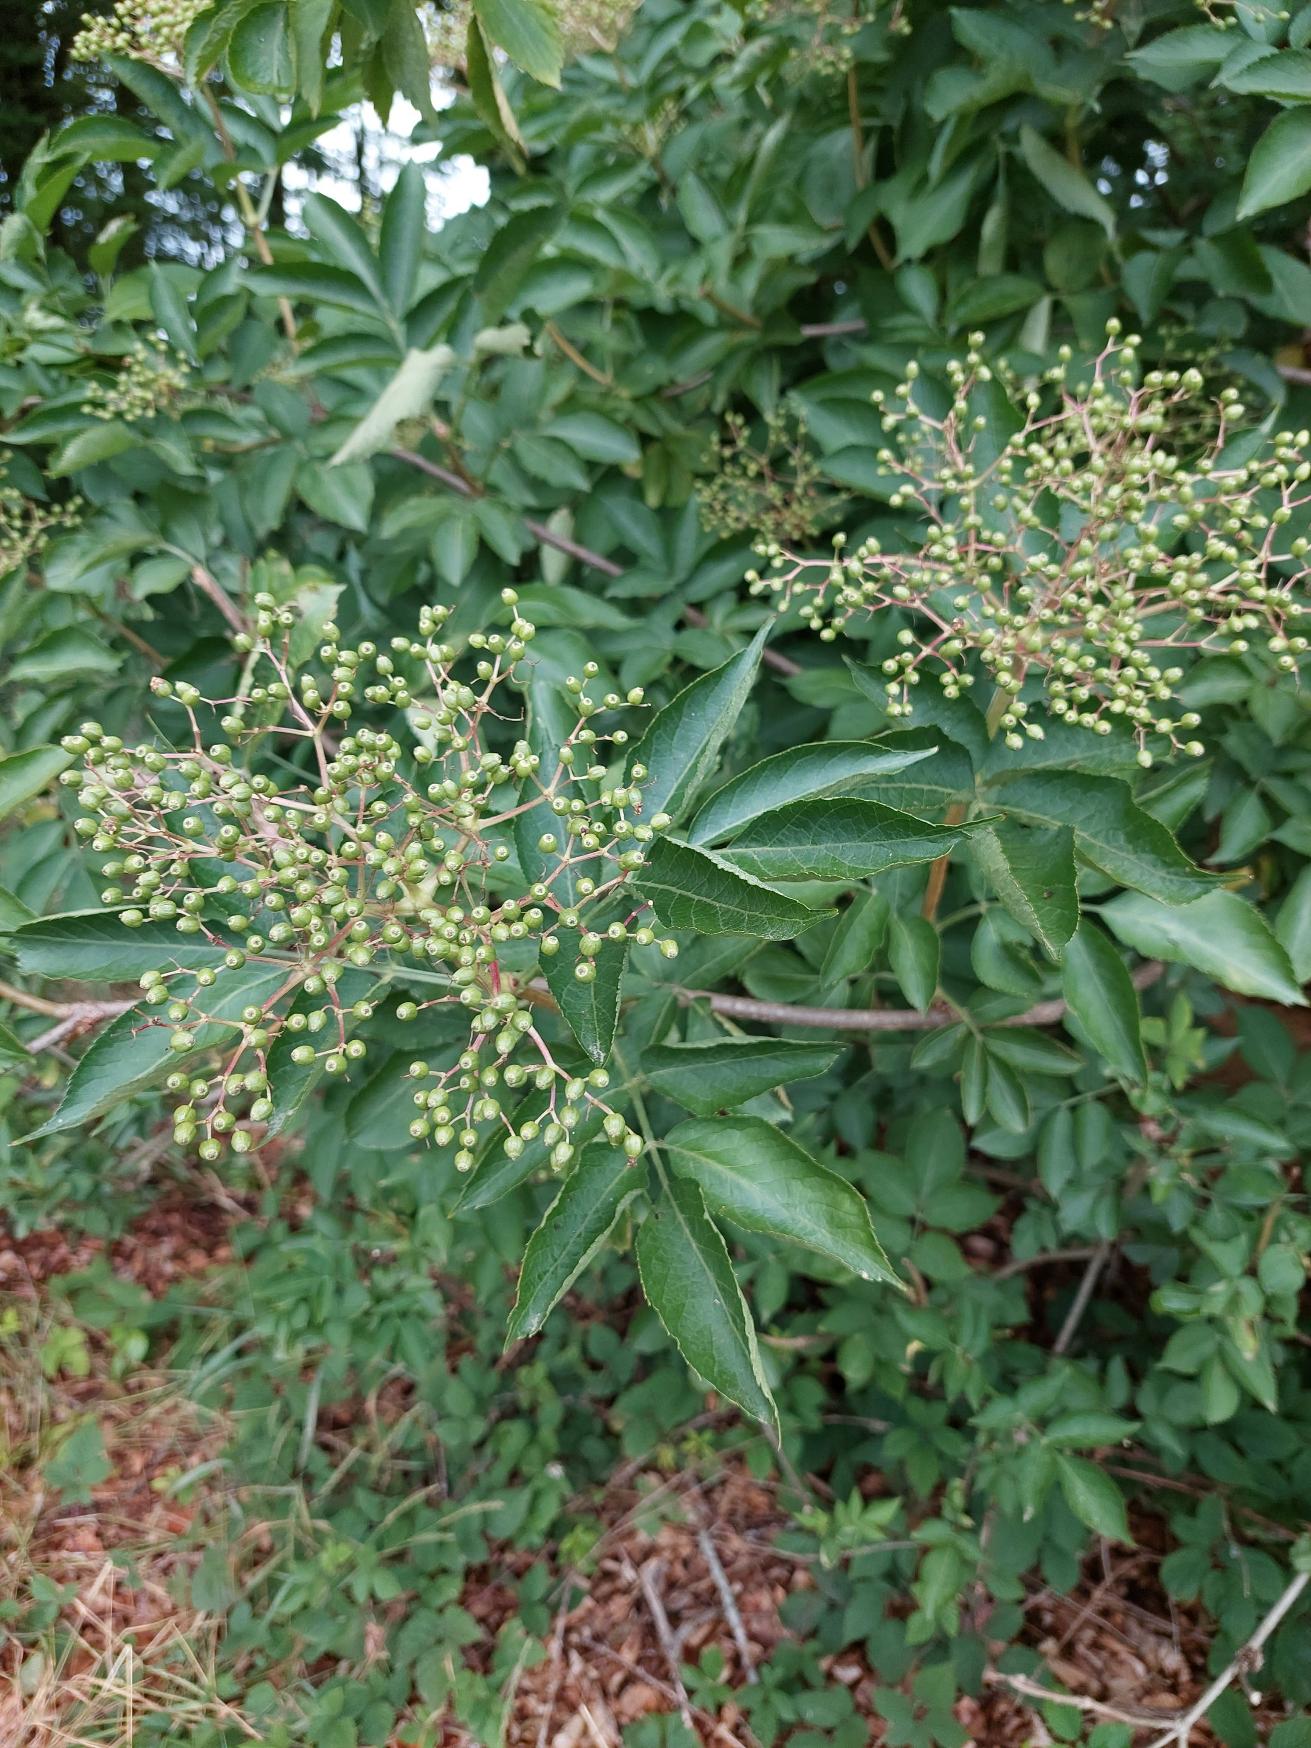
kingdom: Plantae
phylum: Tracheophyta
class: Magnoliopsida
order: Dipsacales
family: Viburnaceae
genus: Sambucus
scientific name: Sambucus nigra
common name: Almindelig hyld
